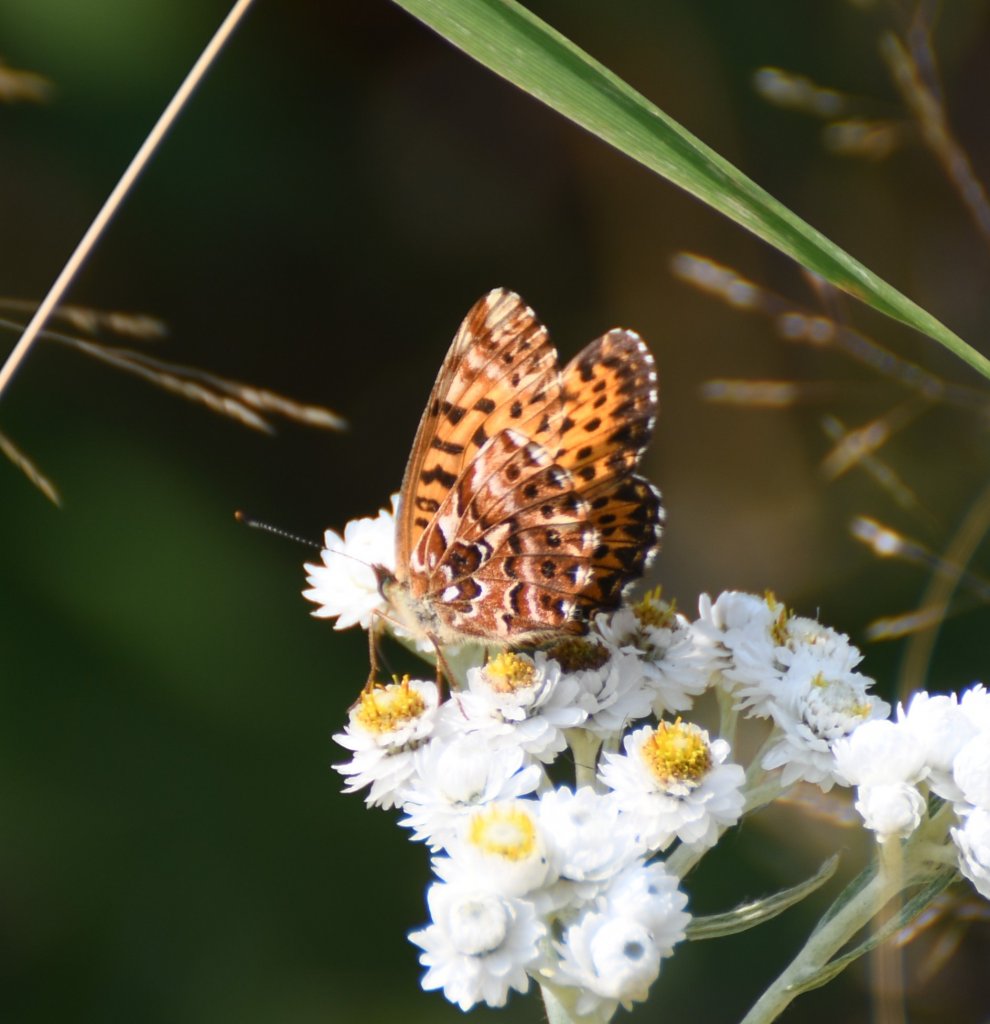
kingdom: Animalia
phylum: Arthropoda
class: Insecta
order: Lepidoptera
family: Nymphalidae
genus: Boloria
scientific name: Boloria chariclea
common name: Arctic Fritillary
